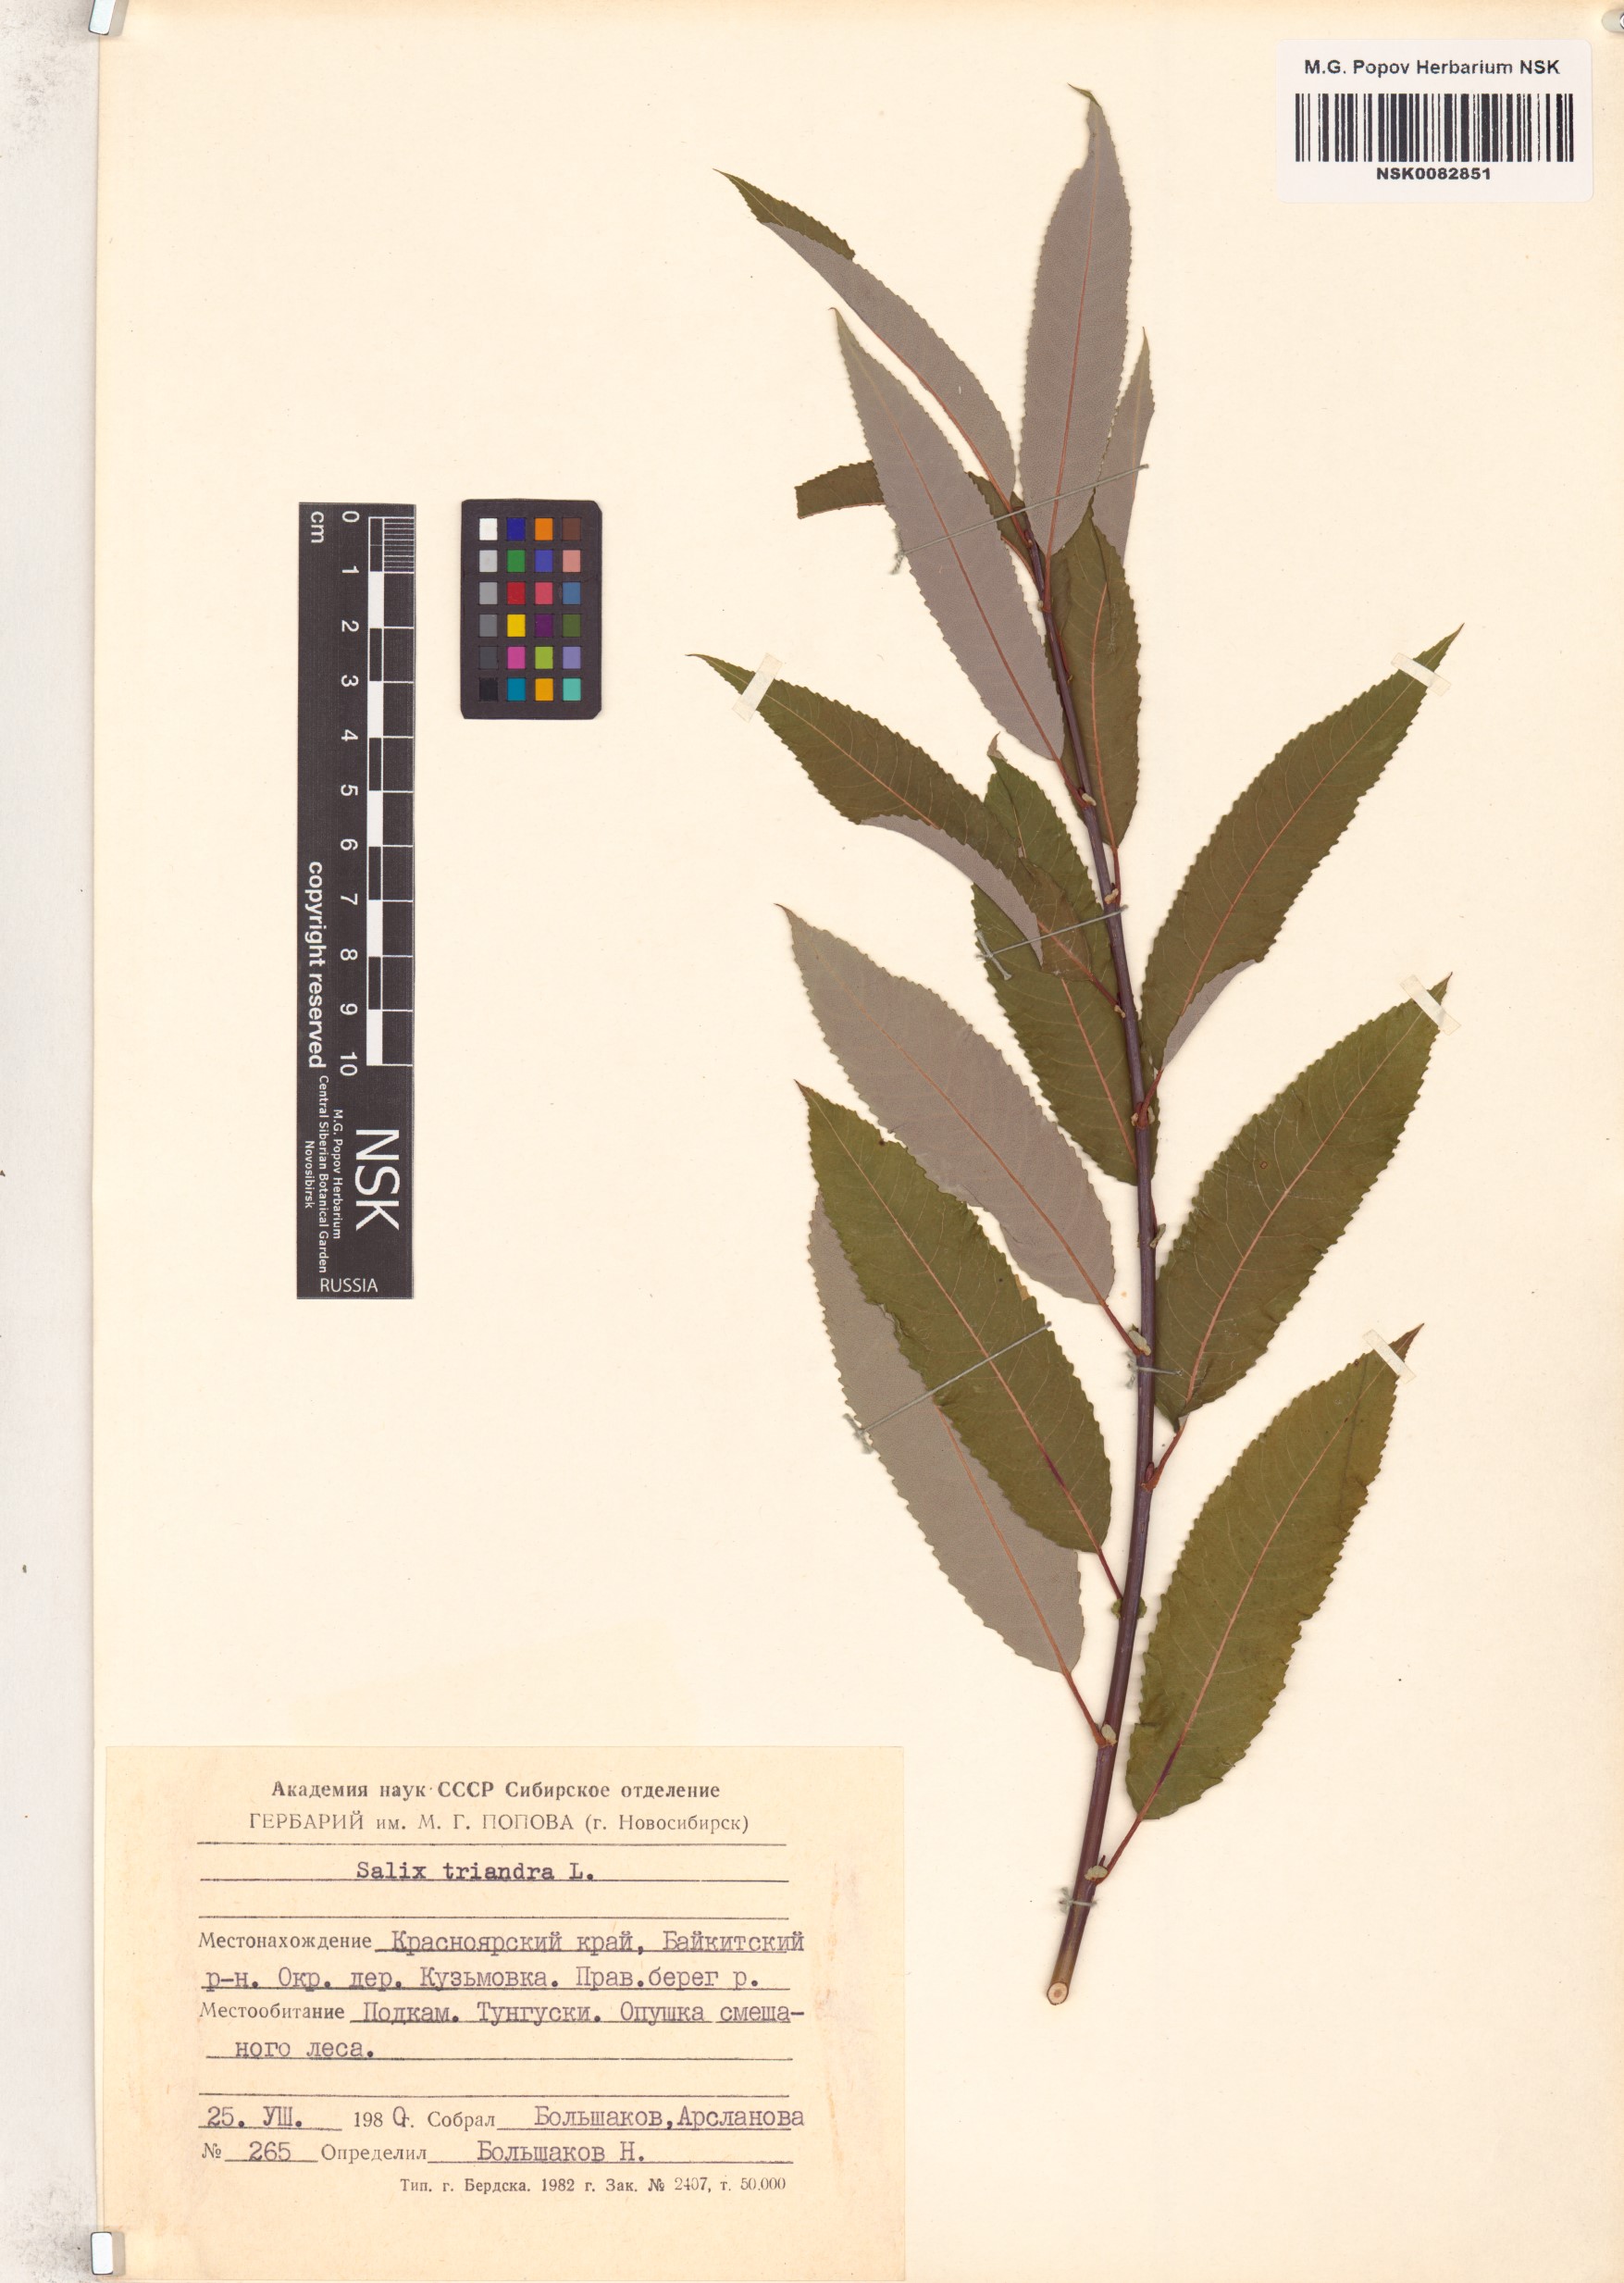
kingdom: Plantae
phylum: Tracheophyta
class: Magnoliopsida
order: Malpighiales
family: Salicaceae
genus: Salix
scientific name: Salix triandra
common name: Almond willow
